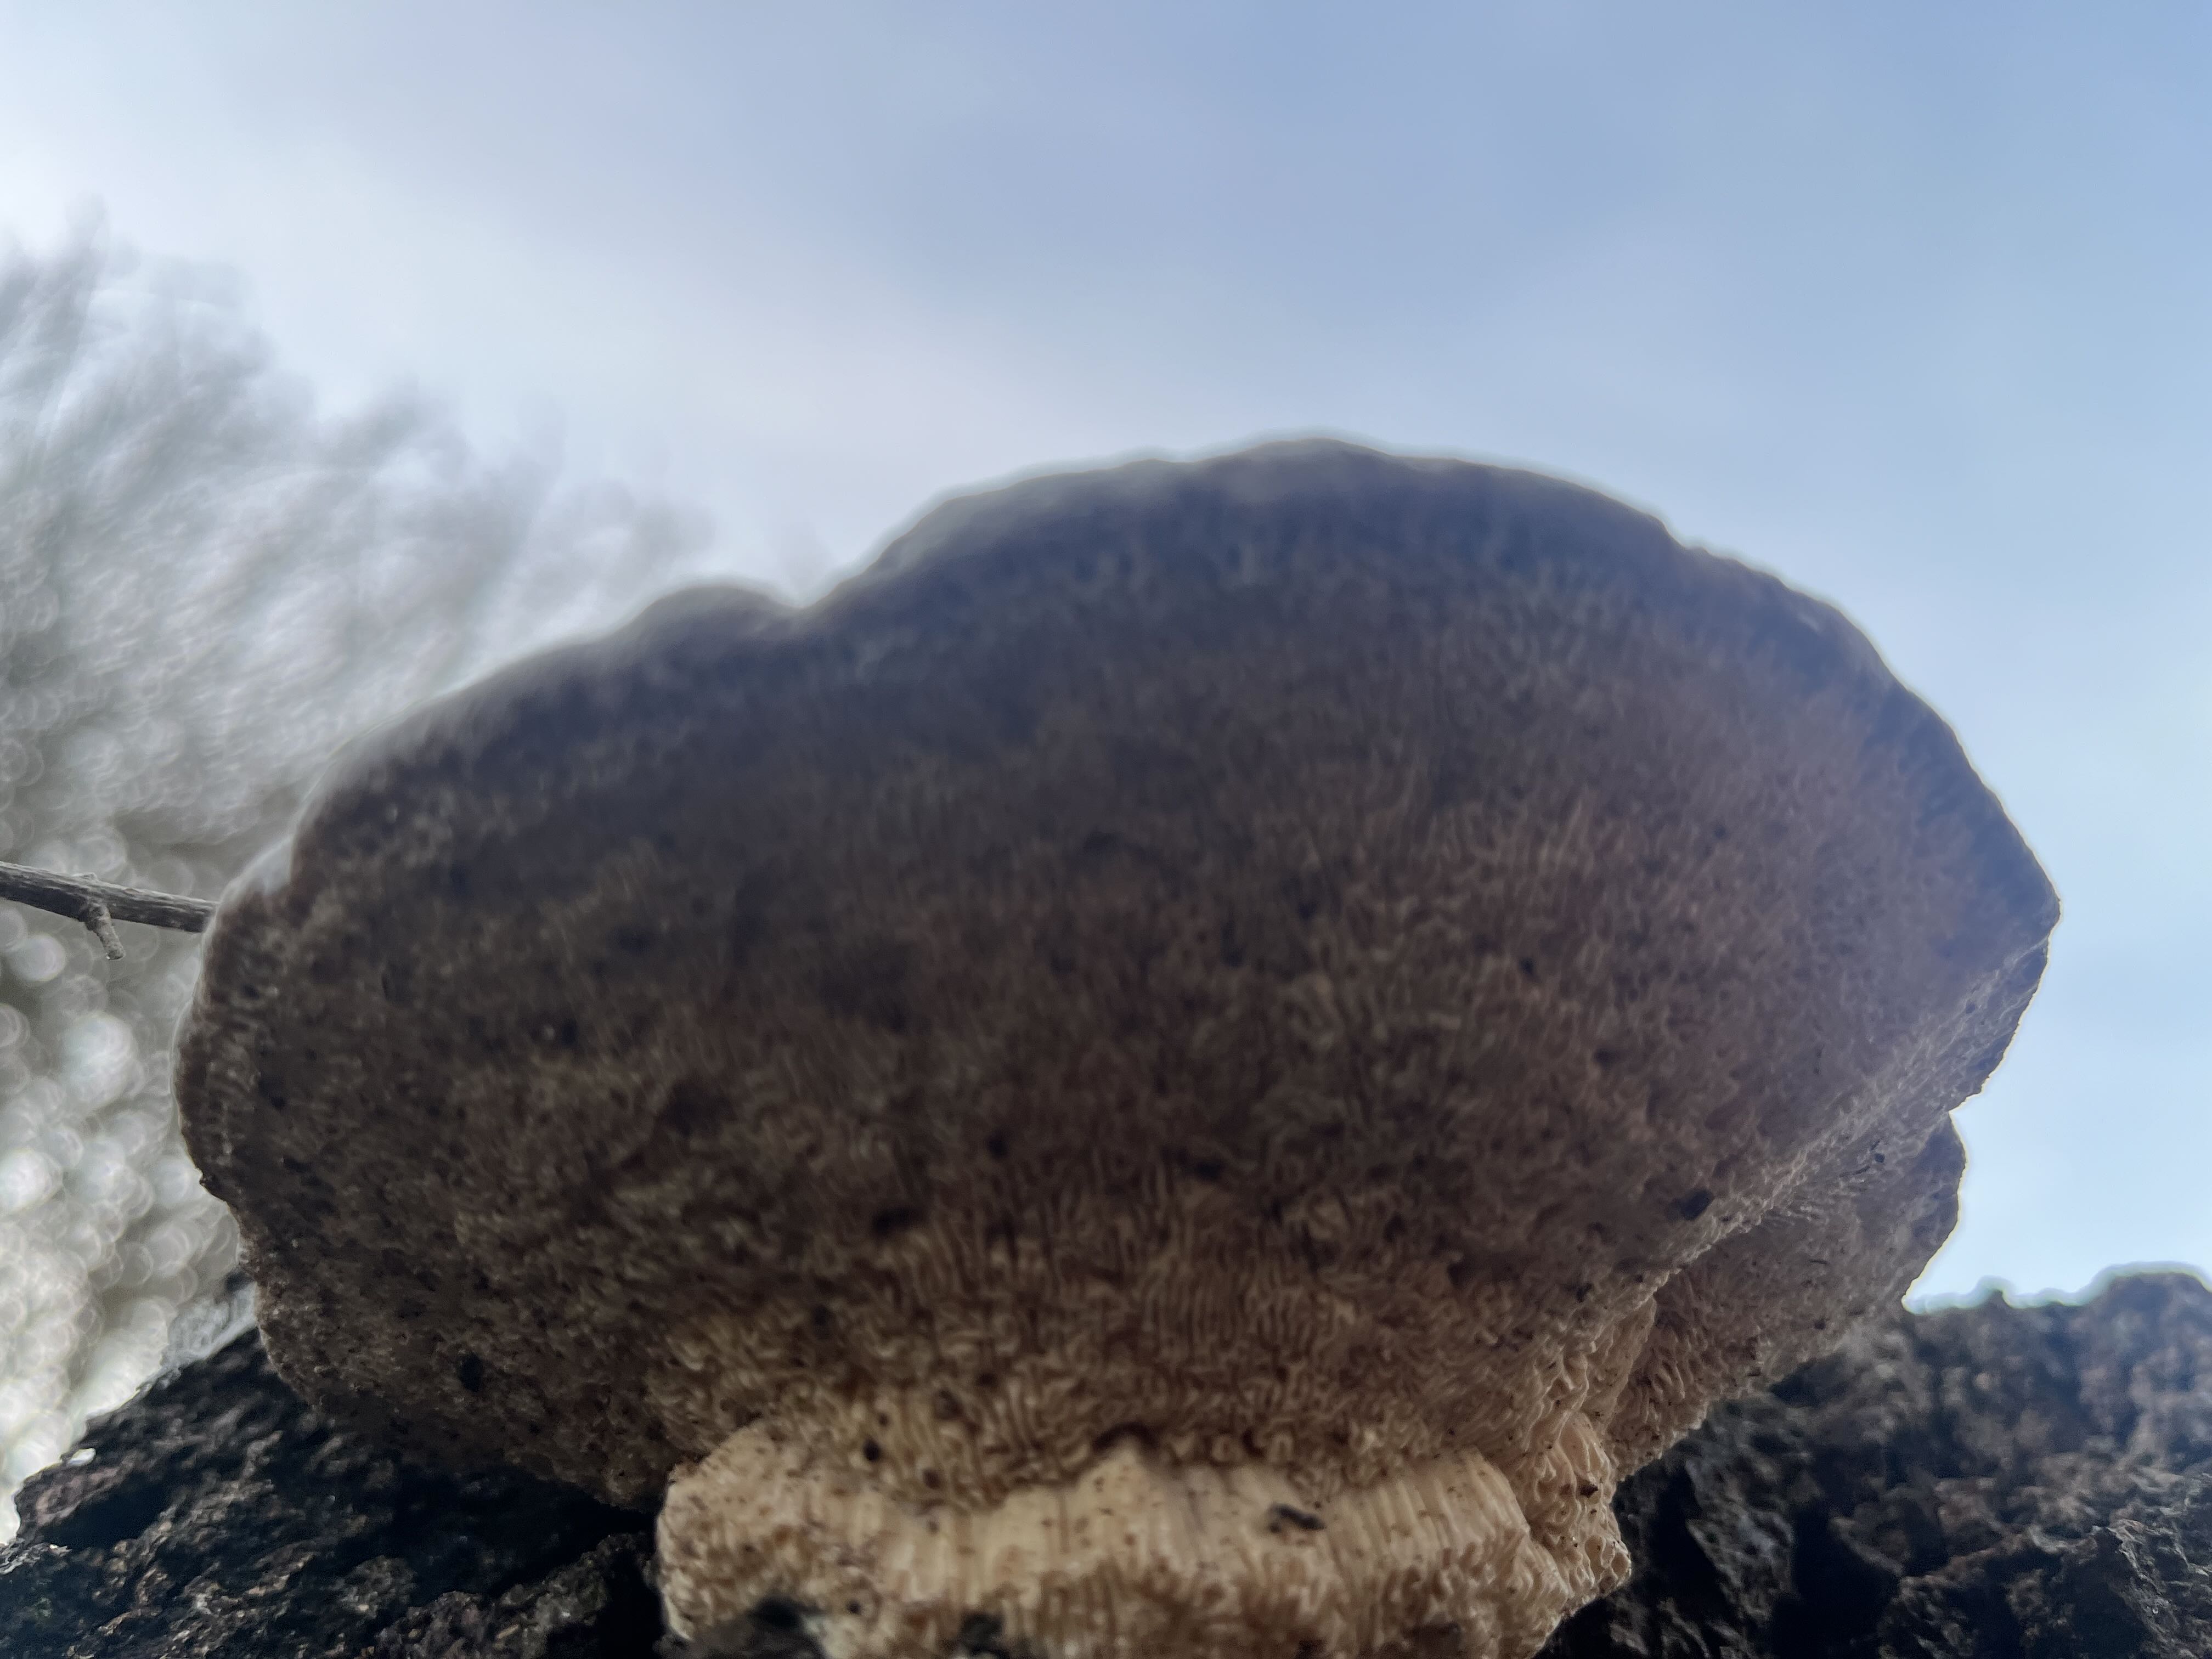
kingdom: Fungi
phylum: Basidiomycota
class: Agaricomycetes
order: Polyporales
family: Fomitopsidaceae
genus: Daedalea
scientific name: Daedalea quercina
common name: ege-labyrintsvamp
